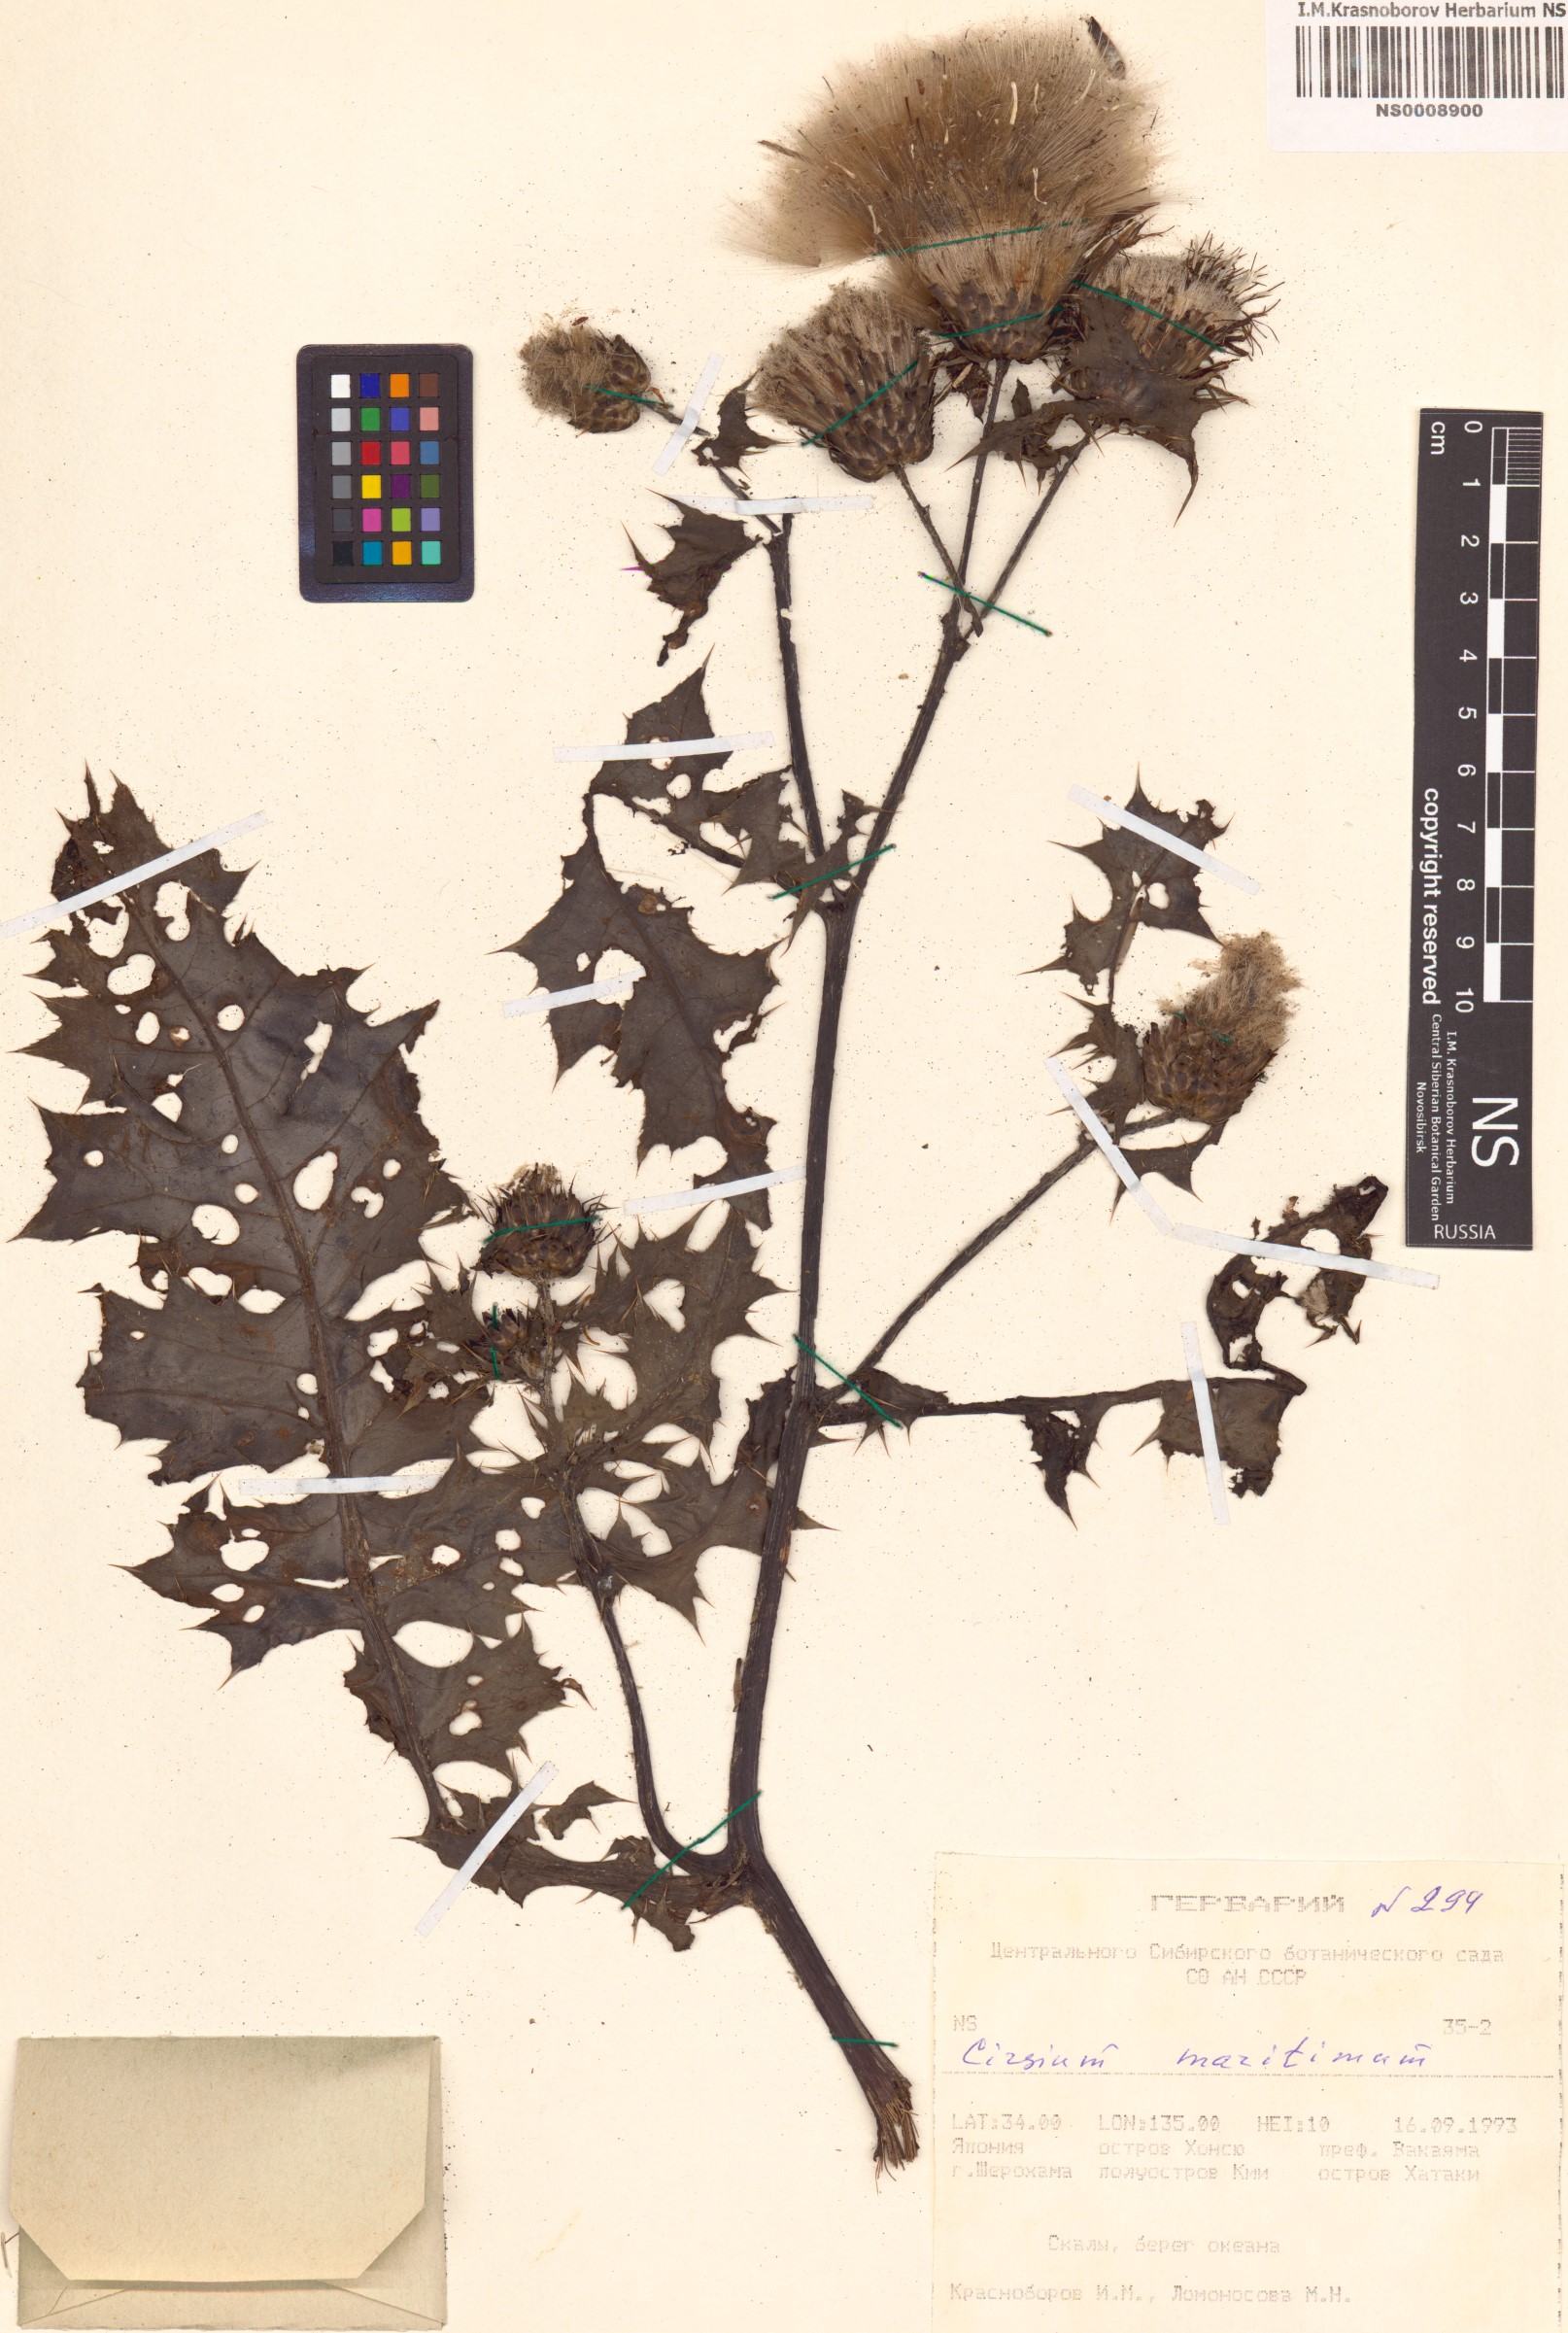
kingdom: Plantae
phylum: Tracheophyta
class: Magnoliopsida
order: Asterales
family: Asteraceae
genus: Cirsium
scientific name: Cirsium maritimum
